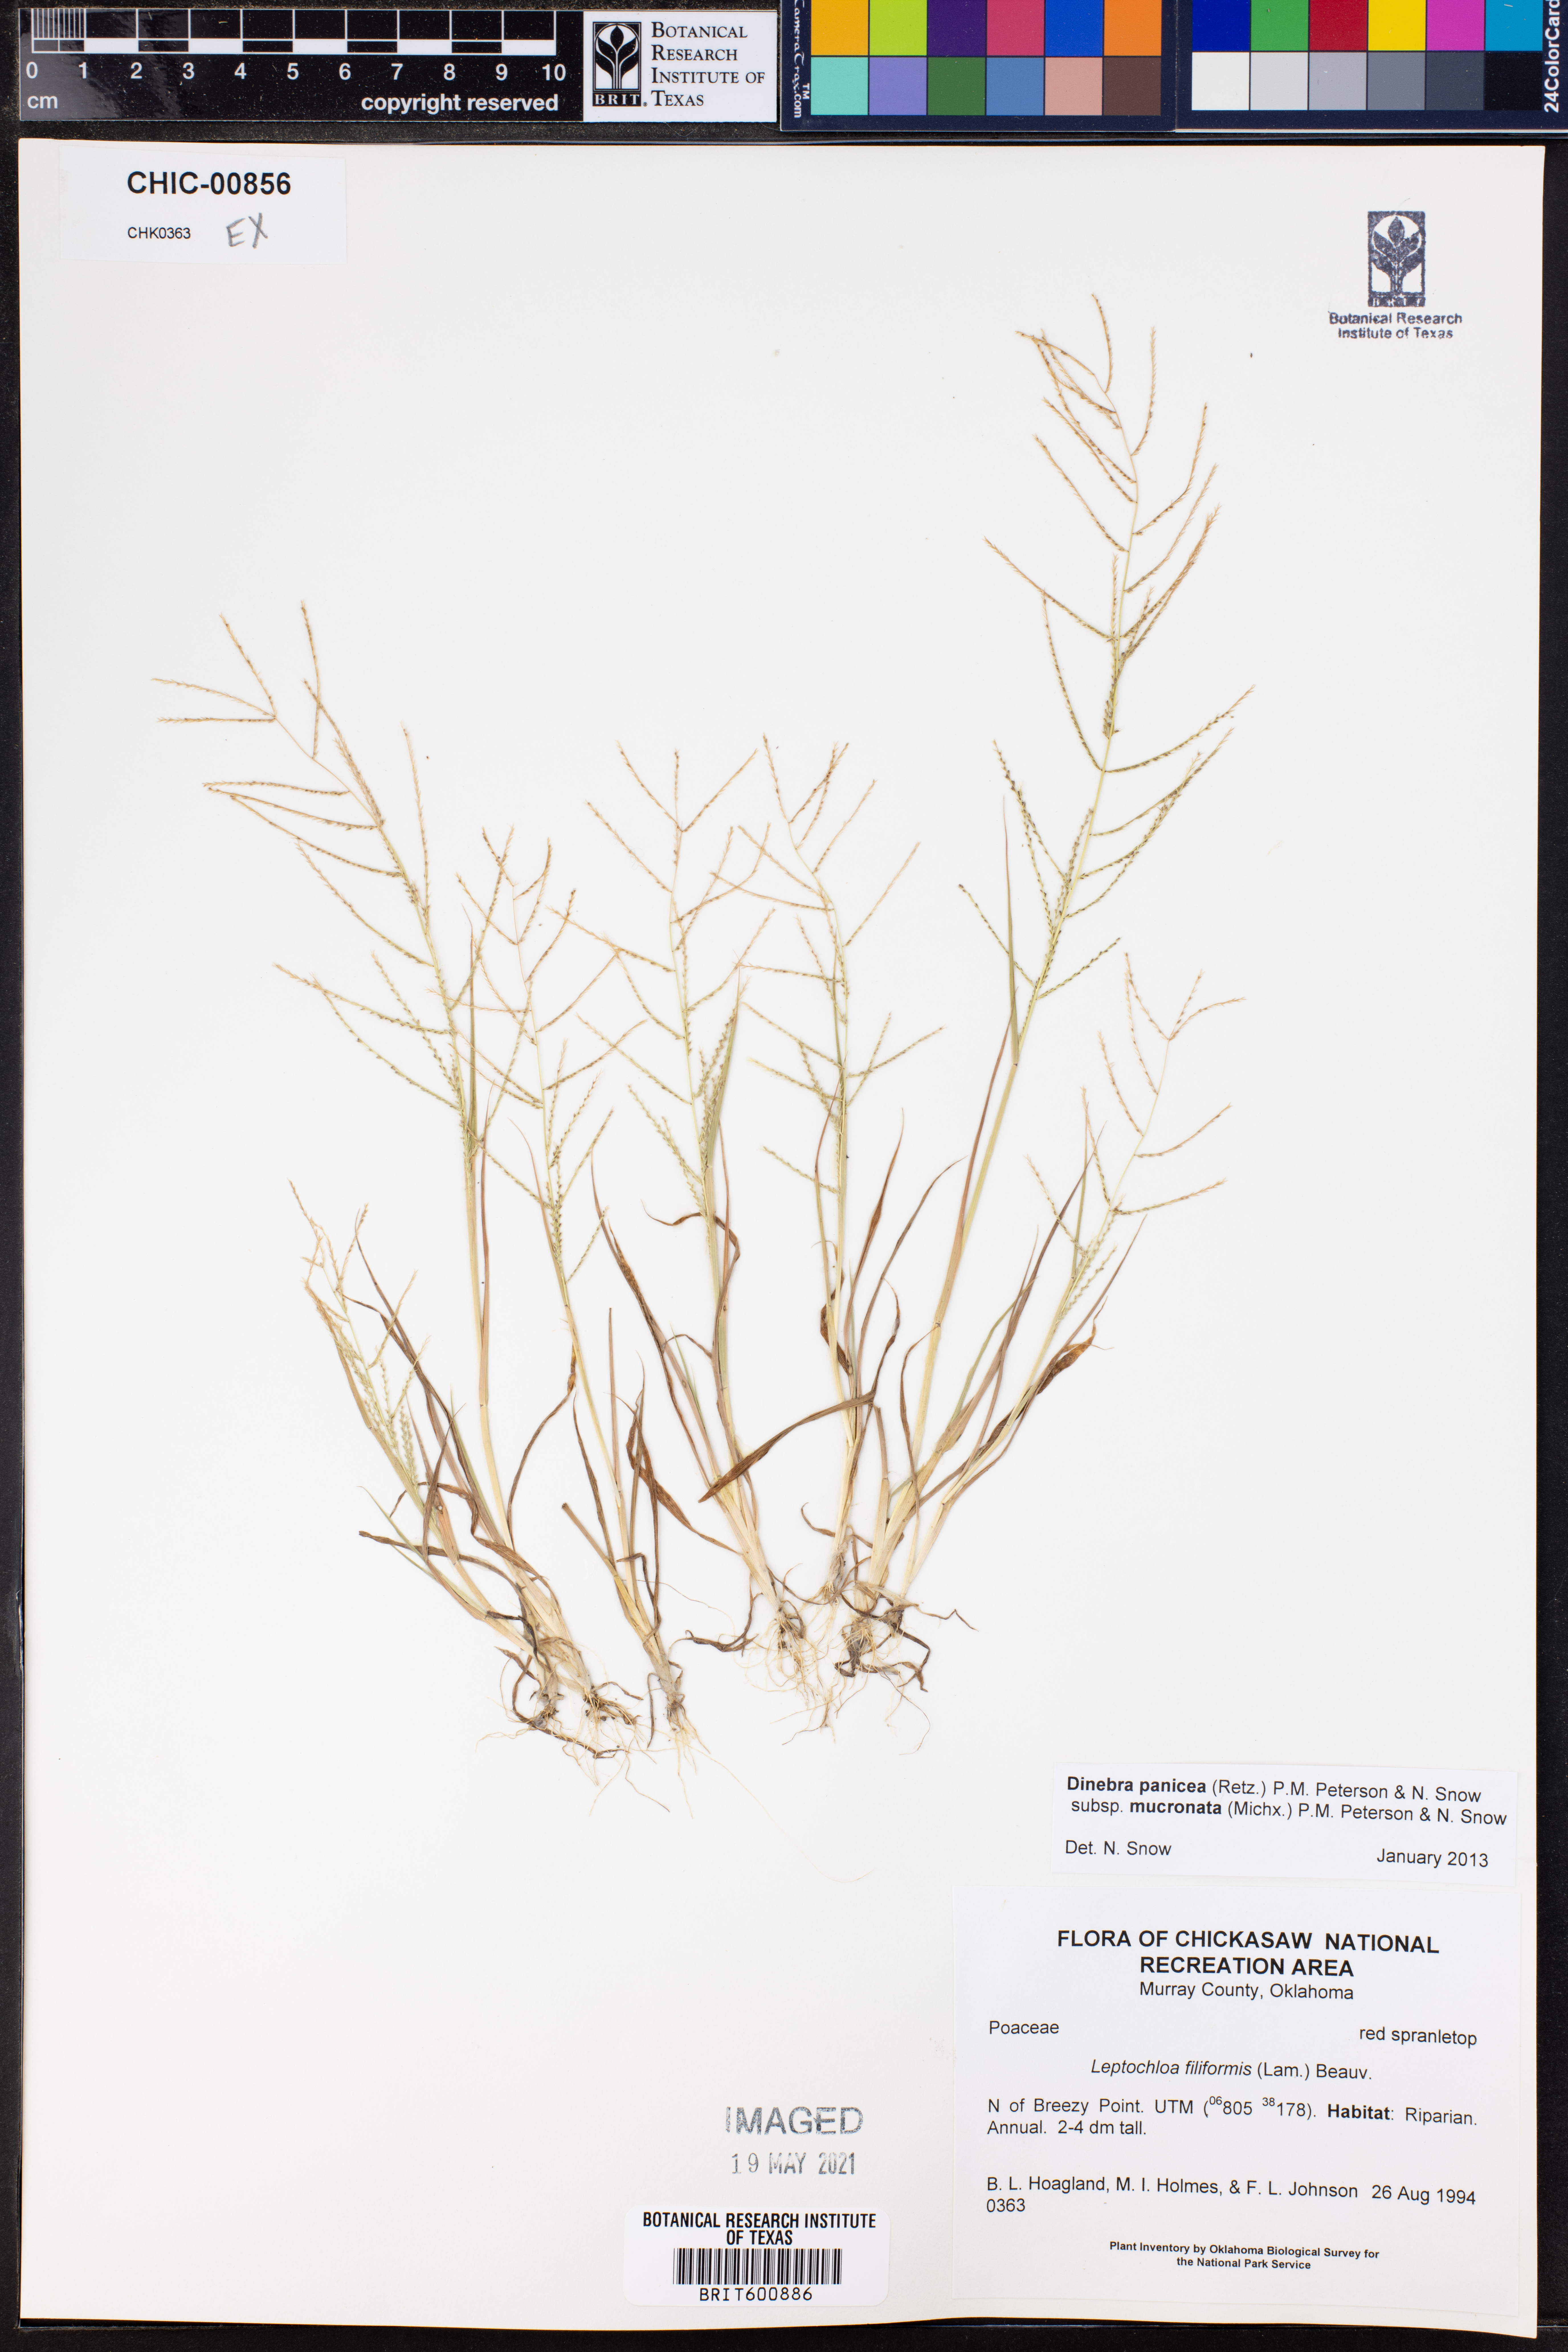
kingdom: Plantae
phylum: Tracheophyta
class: Liliopsida
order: Poales
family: Poaceae
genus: Leptochloa
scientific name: Leptochloa mucronata
